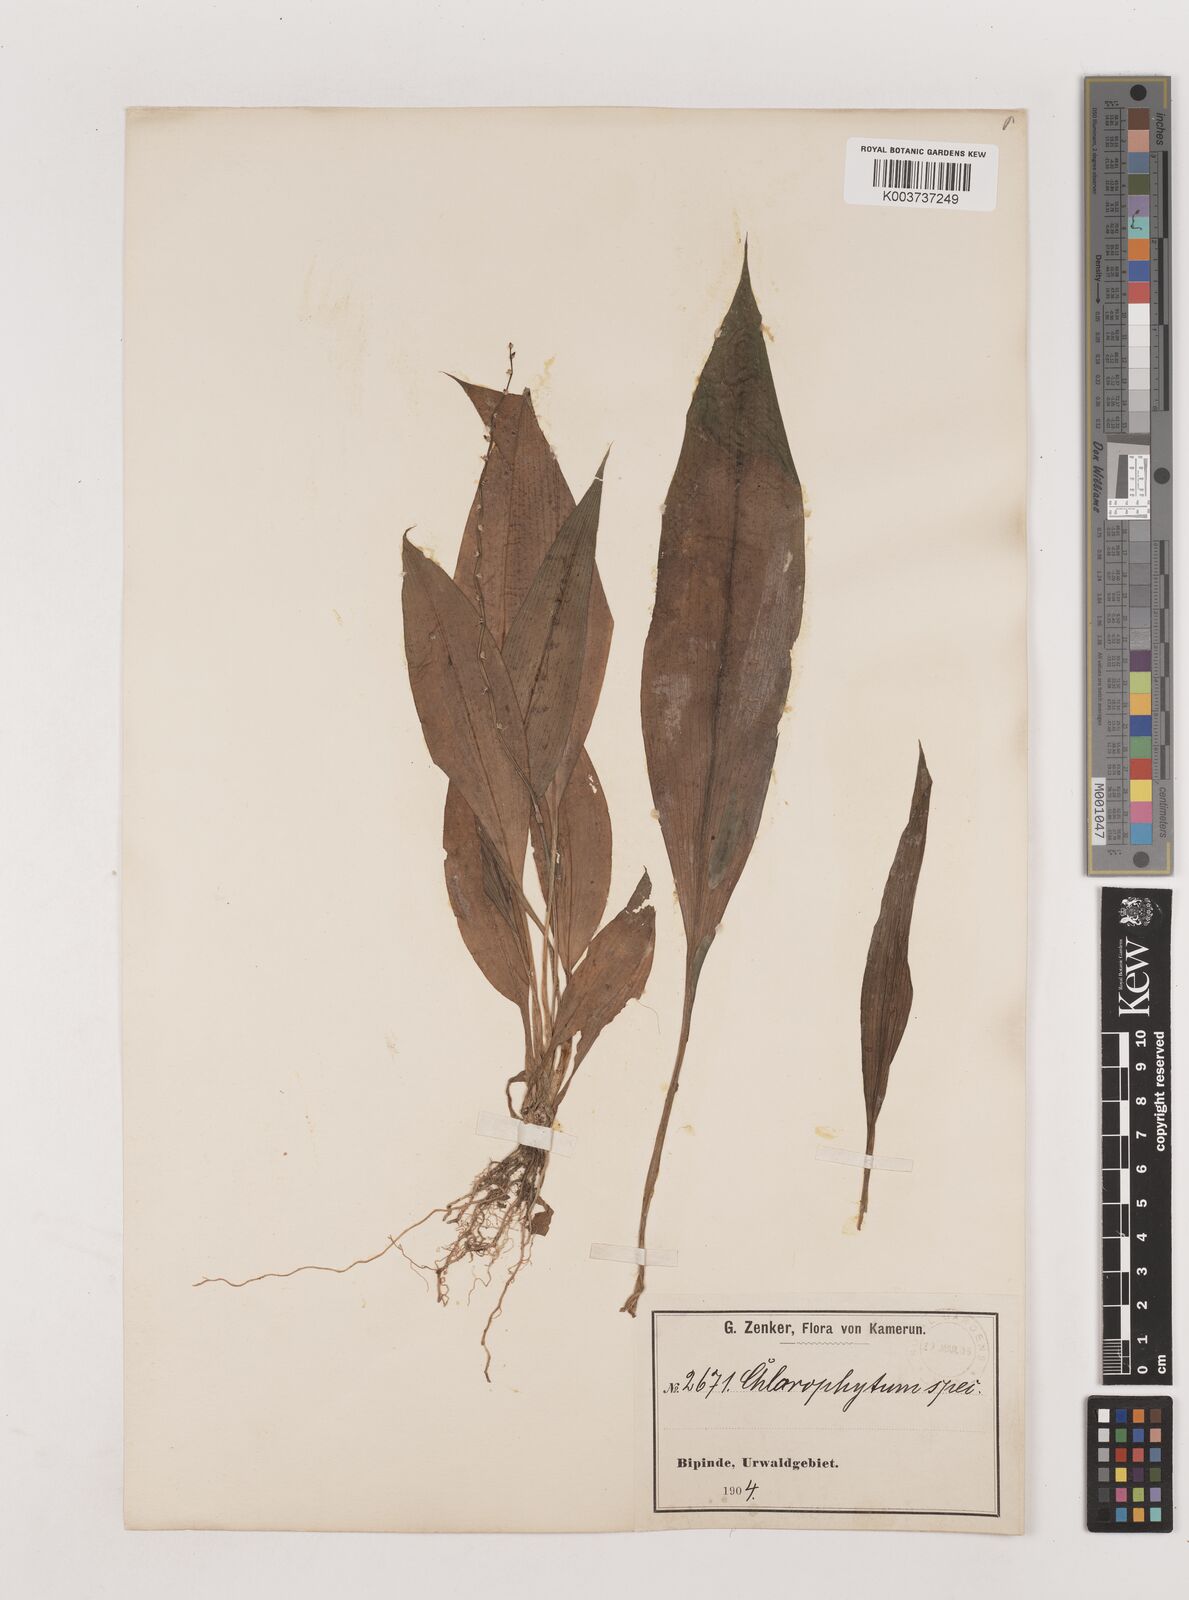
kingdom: Plantae
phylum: Tracheophyta
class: Liliopsida
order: Asparagales
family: Asparagaceae
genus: Chlorophytum
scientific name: Chlorophytum sparsiflorum
